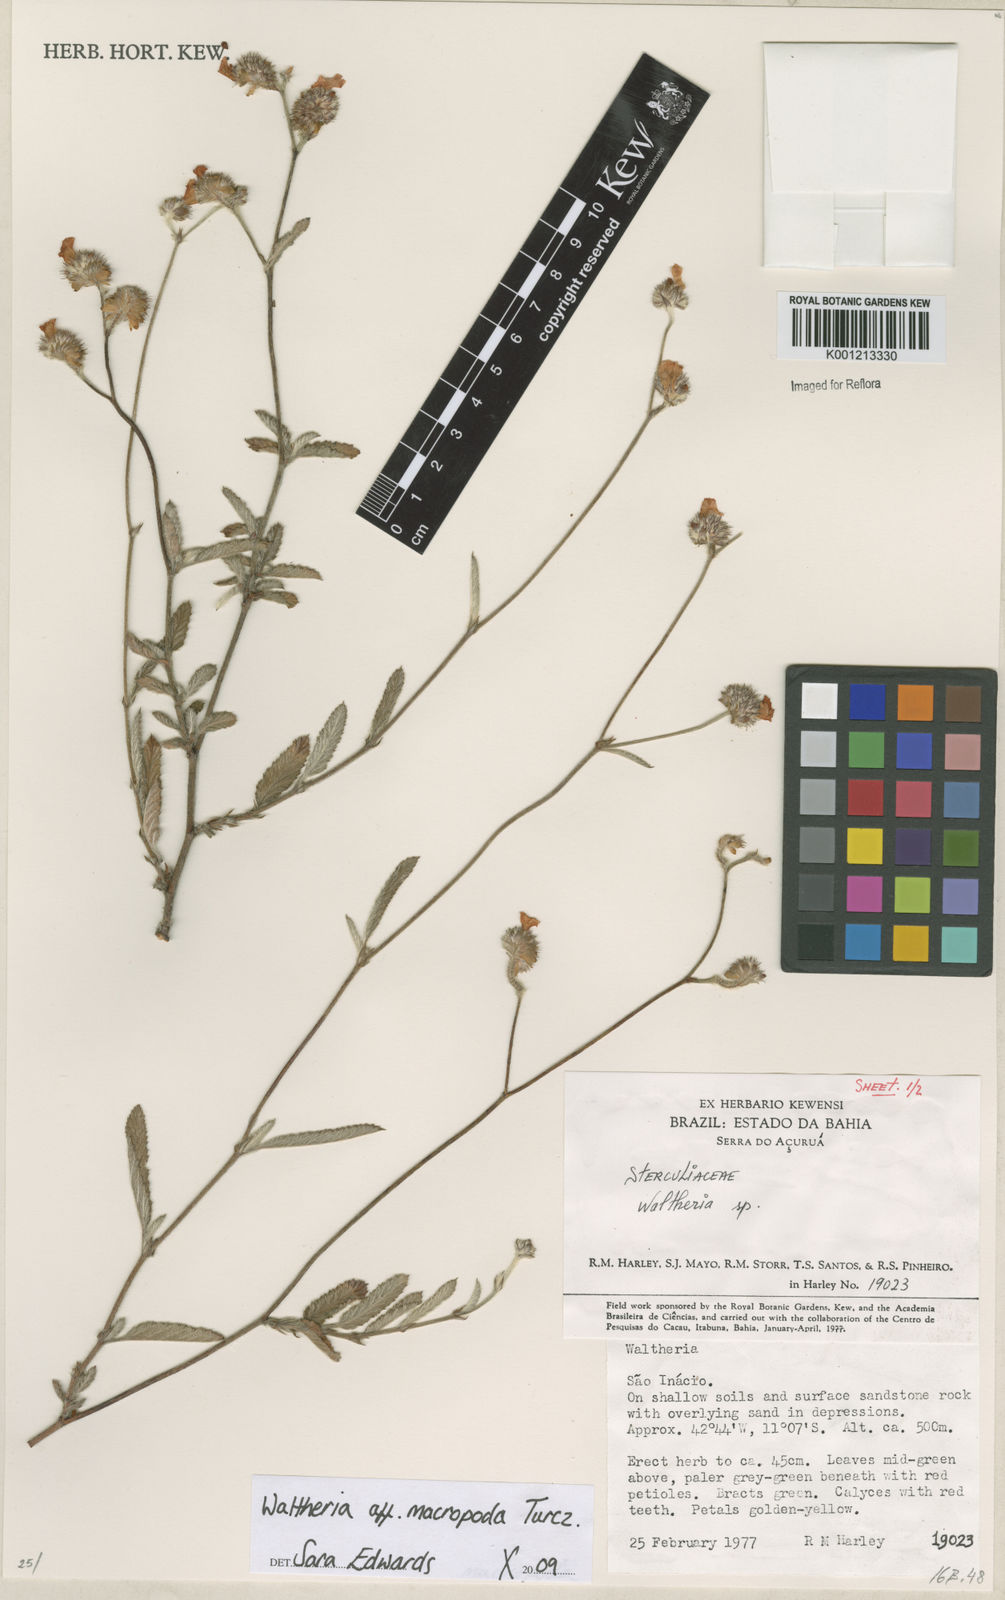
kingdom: Plantae
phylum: Tracheophyta
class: Magnoliopsida
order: Malvales
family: Malvaceae
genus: Waltheria
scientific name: Waltheria bracteosa
